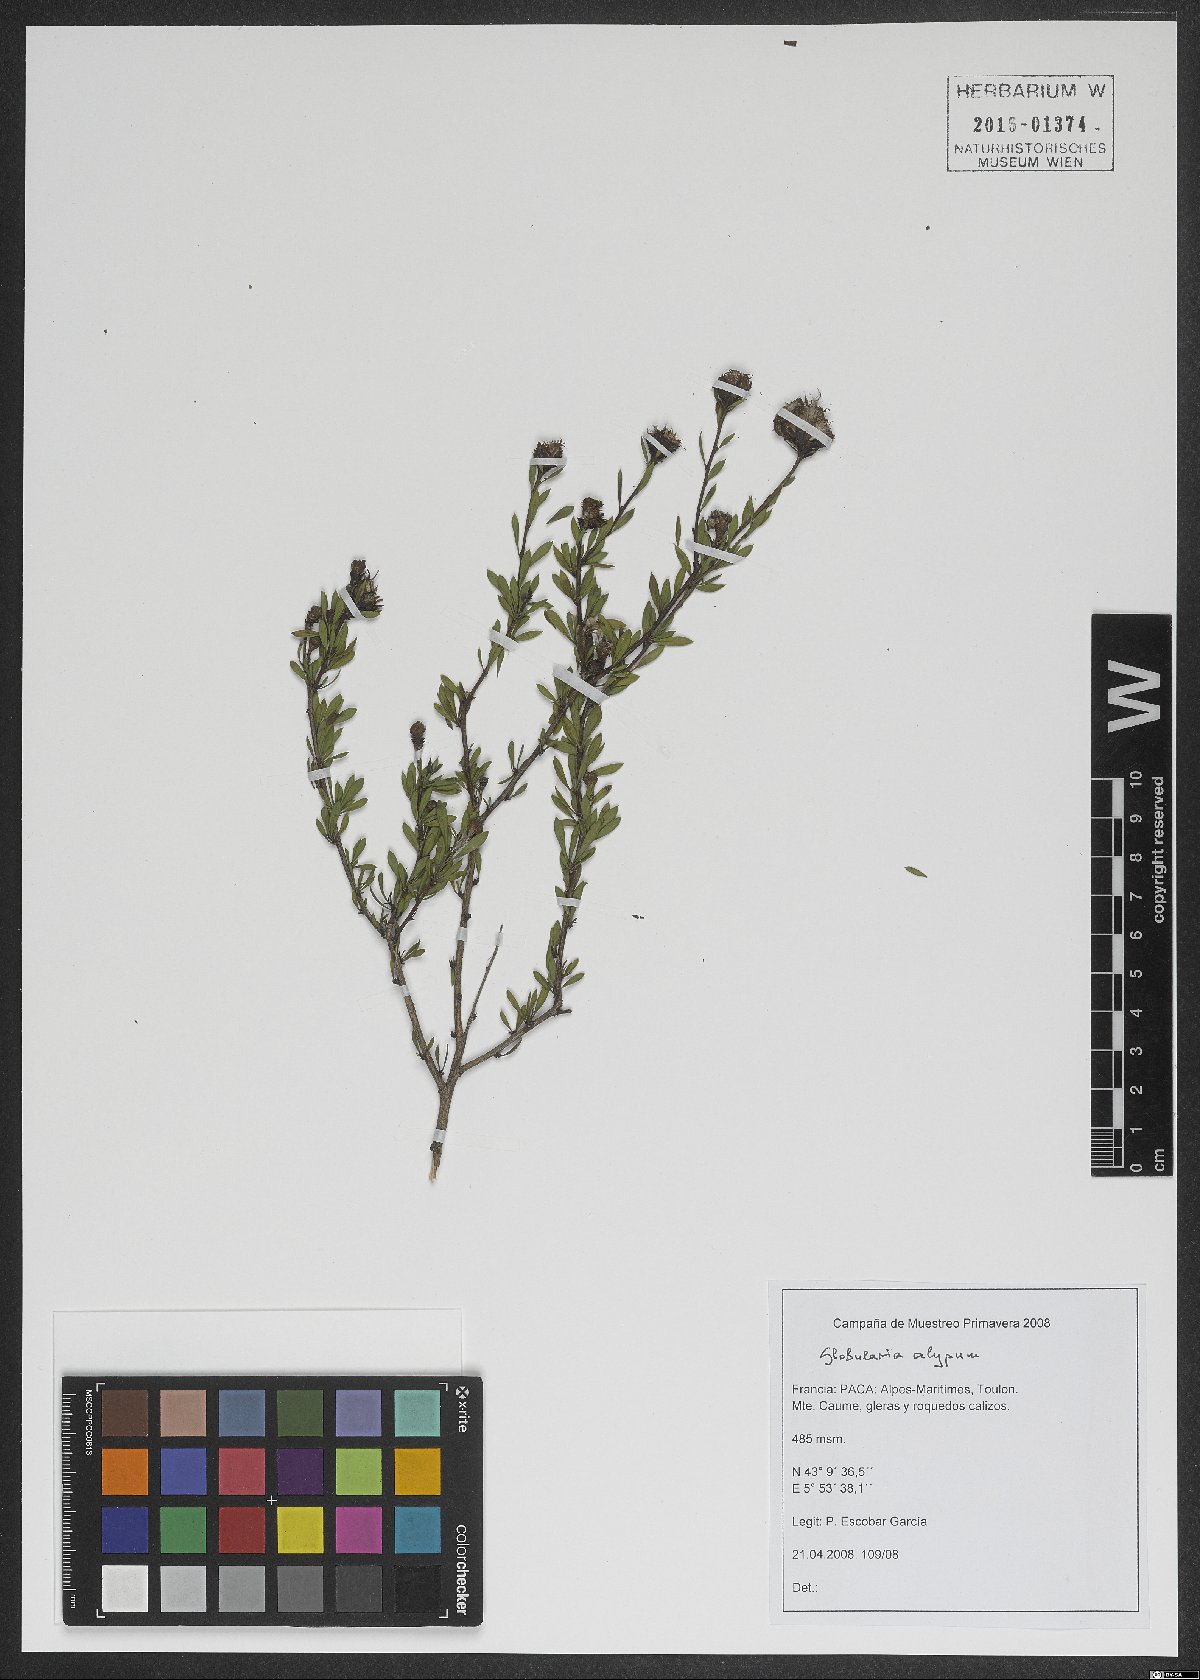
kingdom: Plantae
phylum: Tracheophyta
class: Magnoliopsida
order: Lamiales
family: Plantaginaceae
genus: Globularia
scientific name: Globularia alypum
